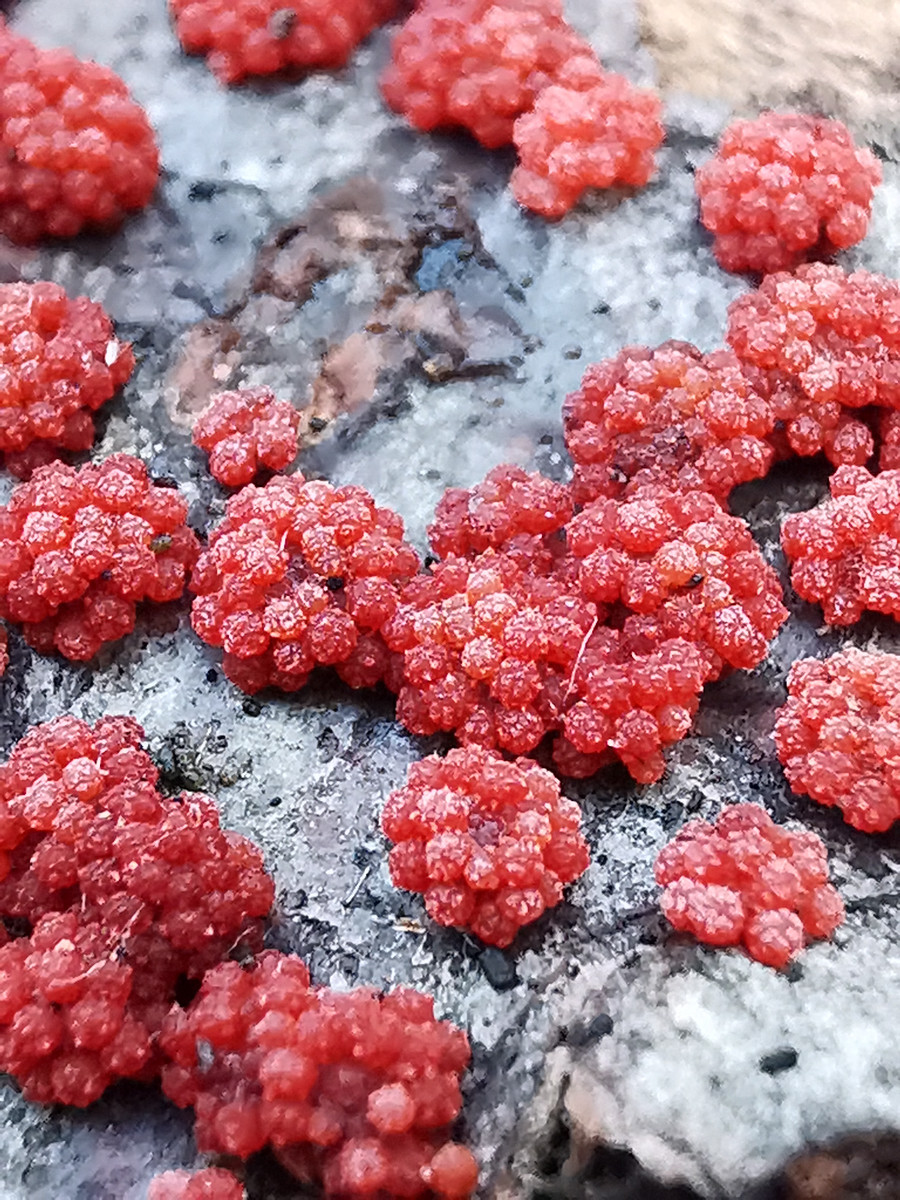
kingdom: Fungi
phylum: Ascomycota
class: Sordariomycetes
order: Hypocreales
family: Nectriaceae
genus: Nectria
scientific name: Nectria cinnabarina
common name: almindelig cinnobersvamp
